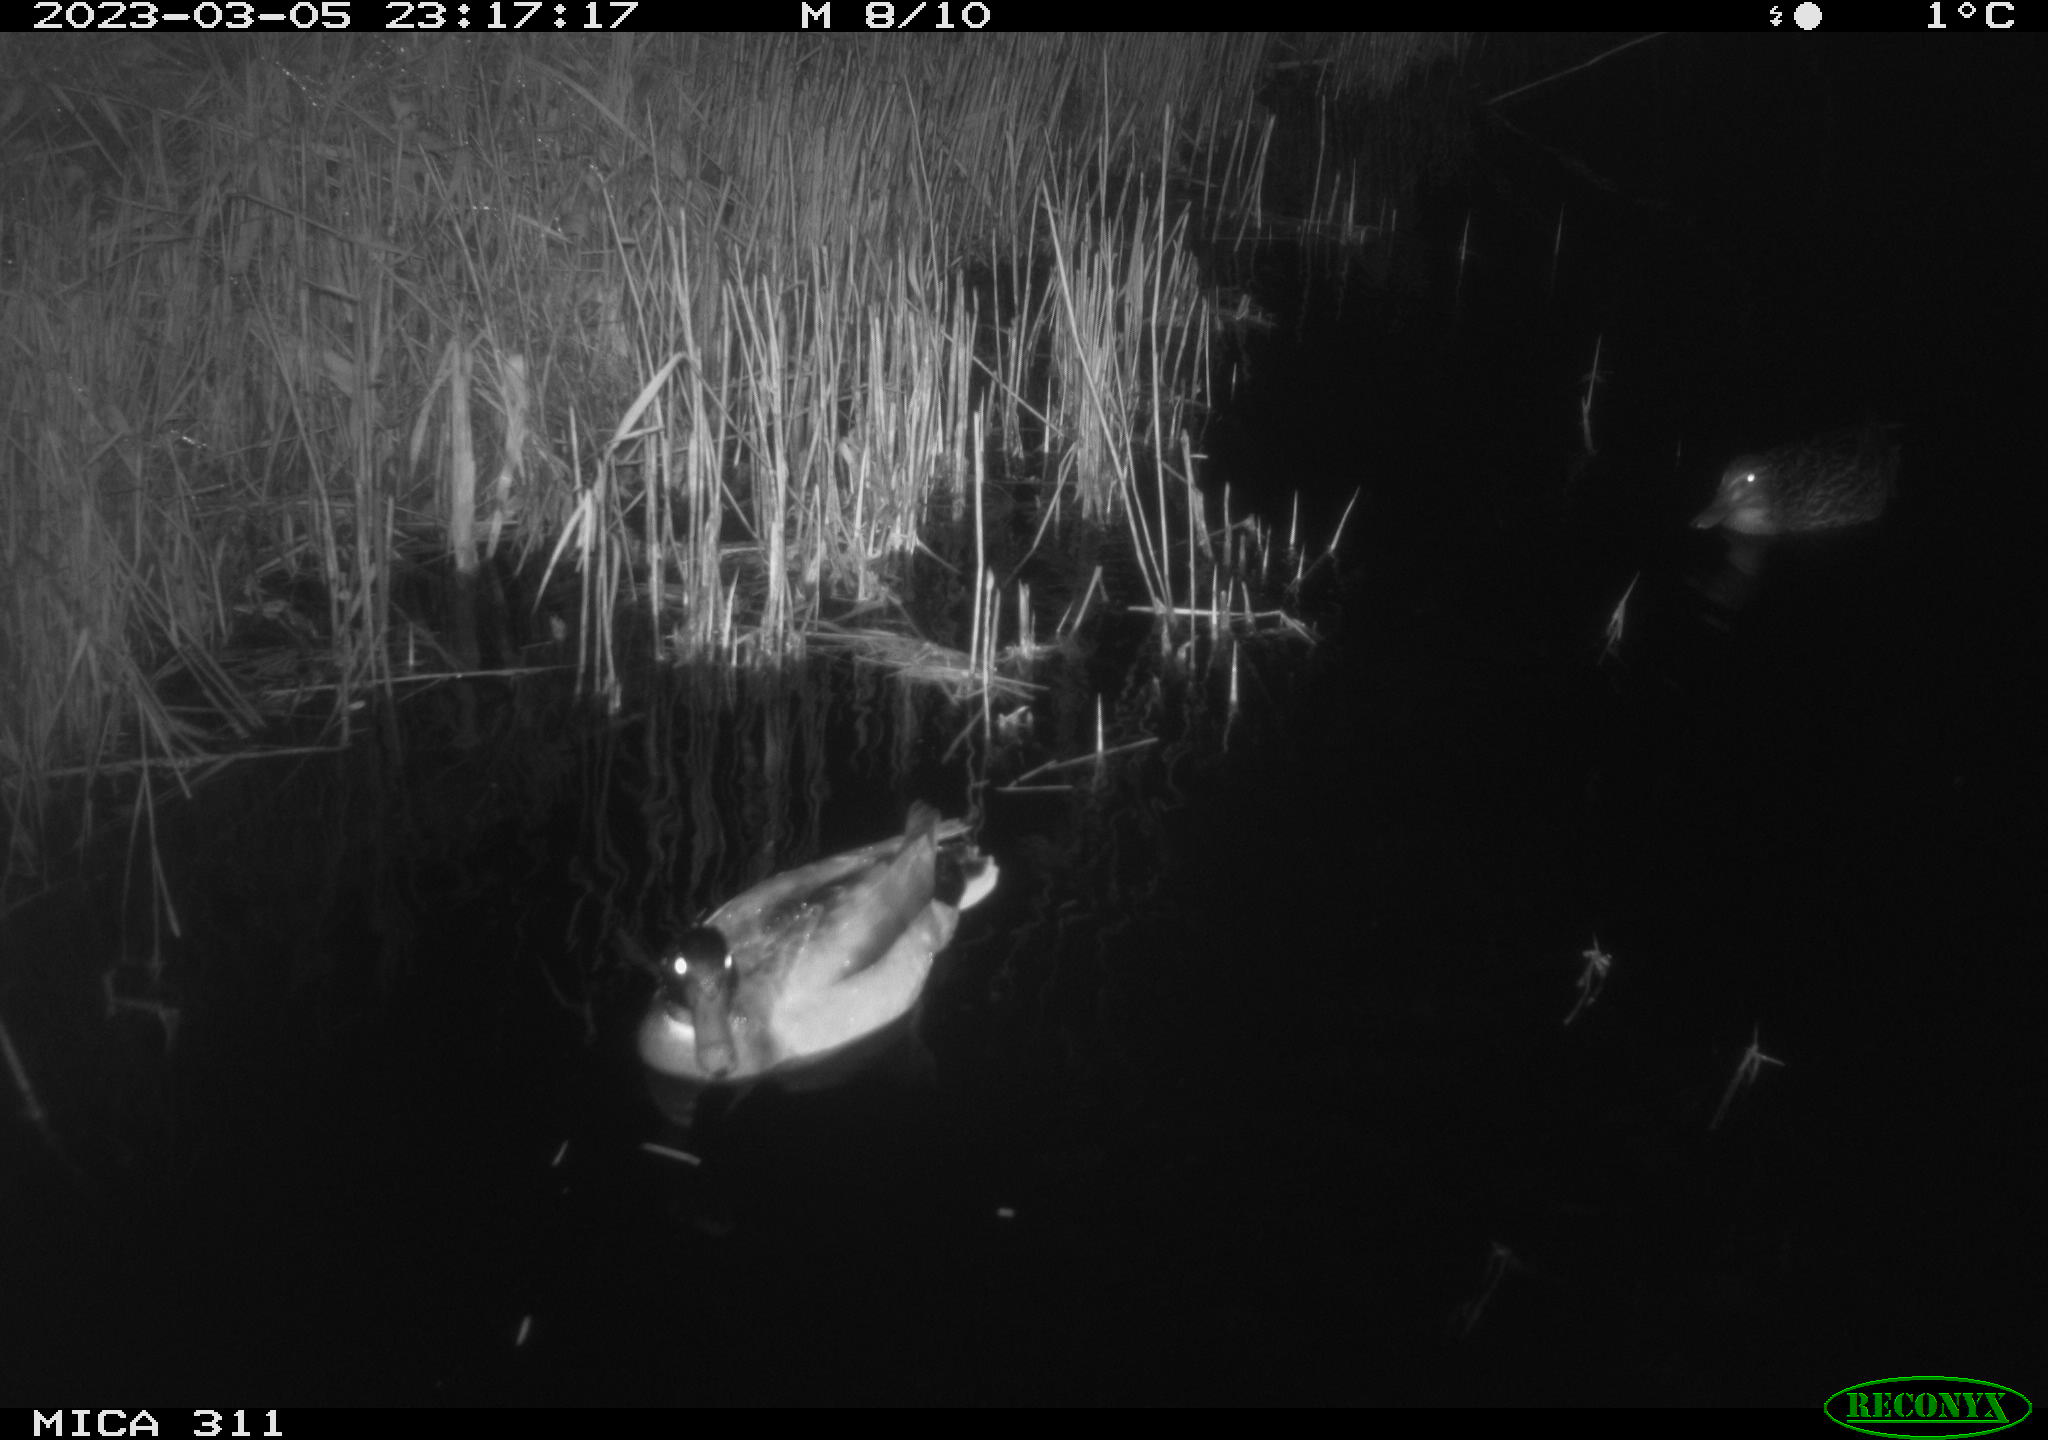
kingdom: Animalia
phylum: Chordata
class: Aves
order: Anseriformes
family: Anatidae
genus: Anas
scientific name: Anas
